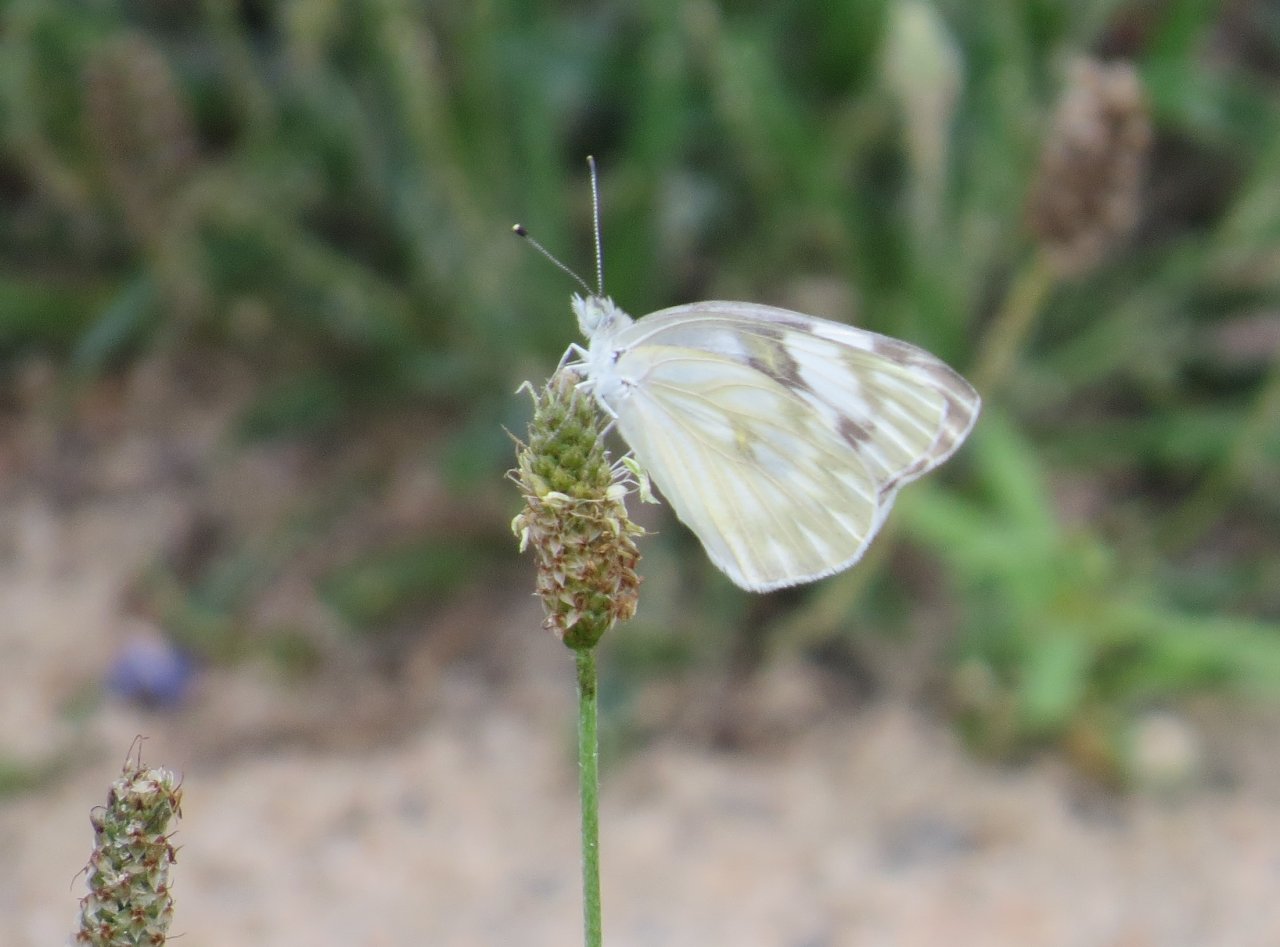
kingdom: Animalia
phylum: Arthropoda
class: Insecta
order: Lepidoptera
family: Pieridae
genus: Pontia
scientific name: Pontia protodice
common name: Checkered White
